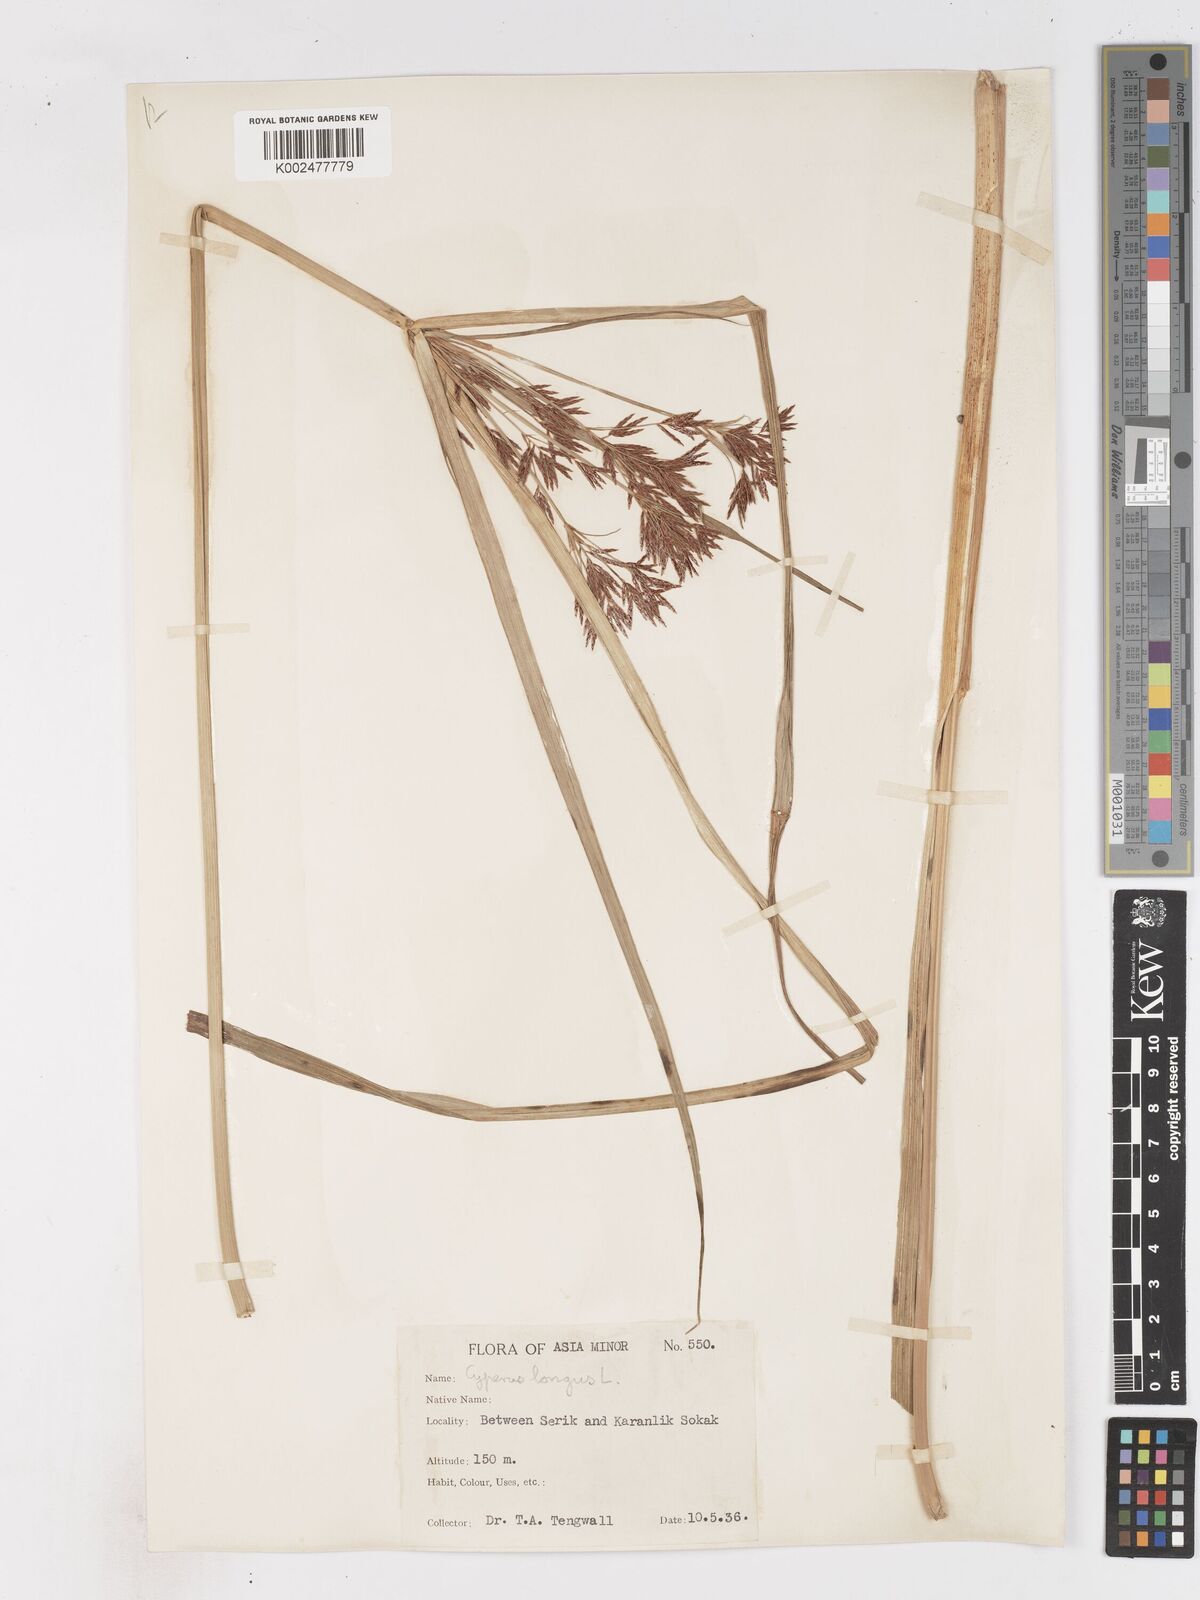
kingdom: Plantae
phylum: Tracheophyta
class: Liliopsida
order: Poales
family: Cyperaceae
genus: Cyperus
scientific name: Cyperus longus
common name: Galingale
